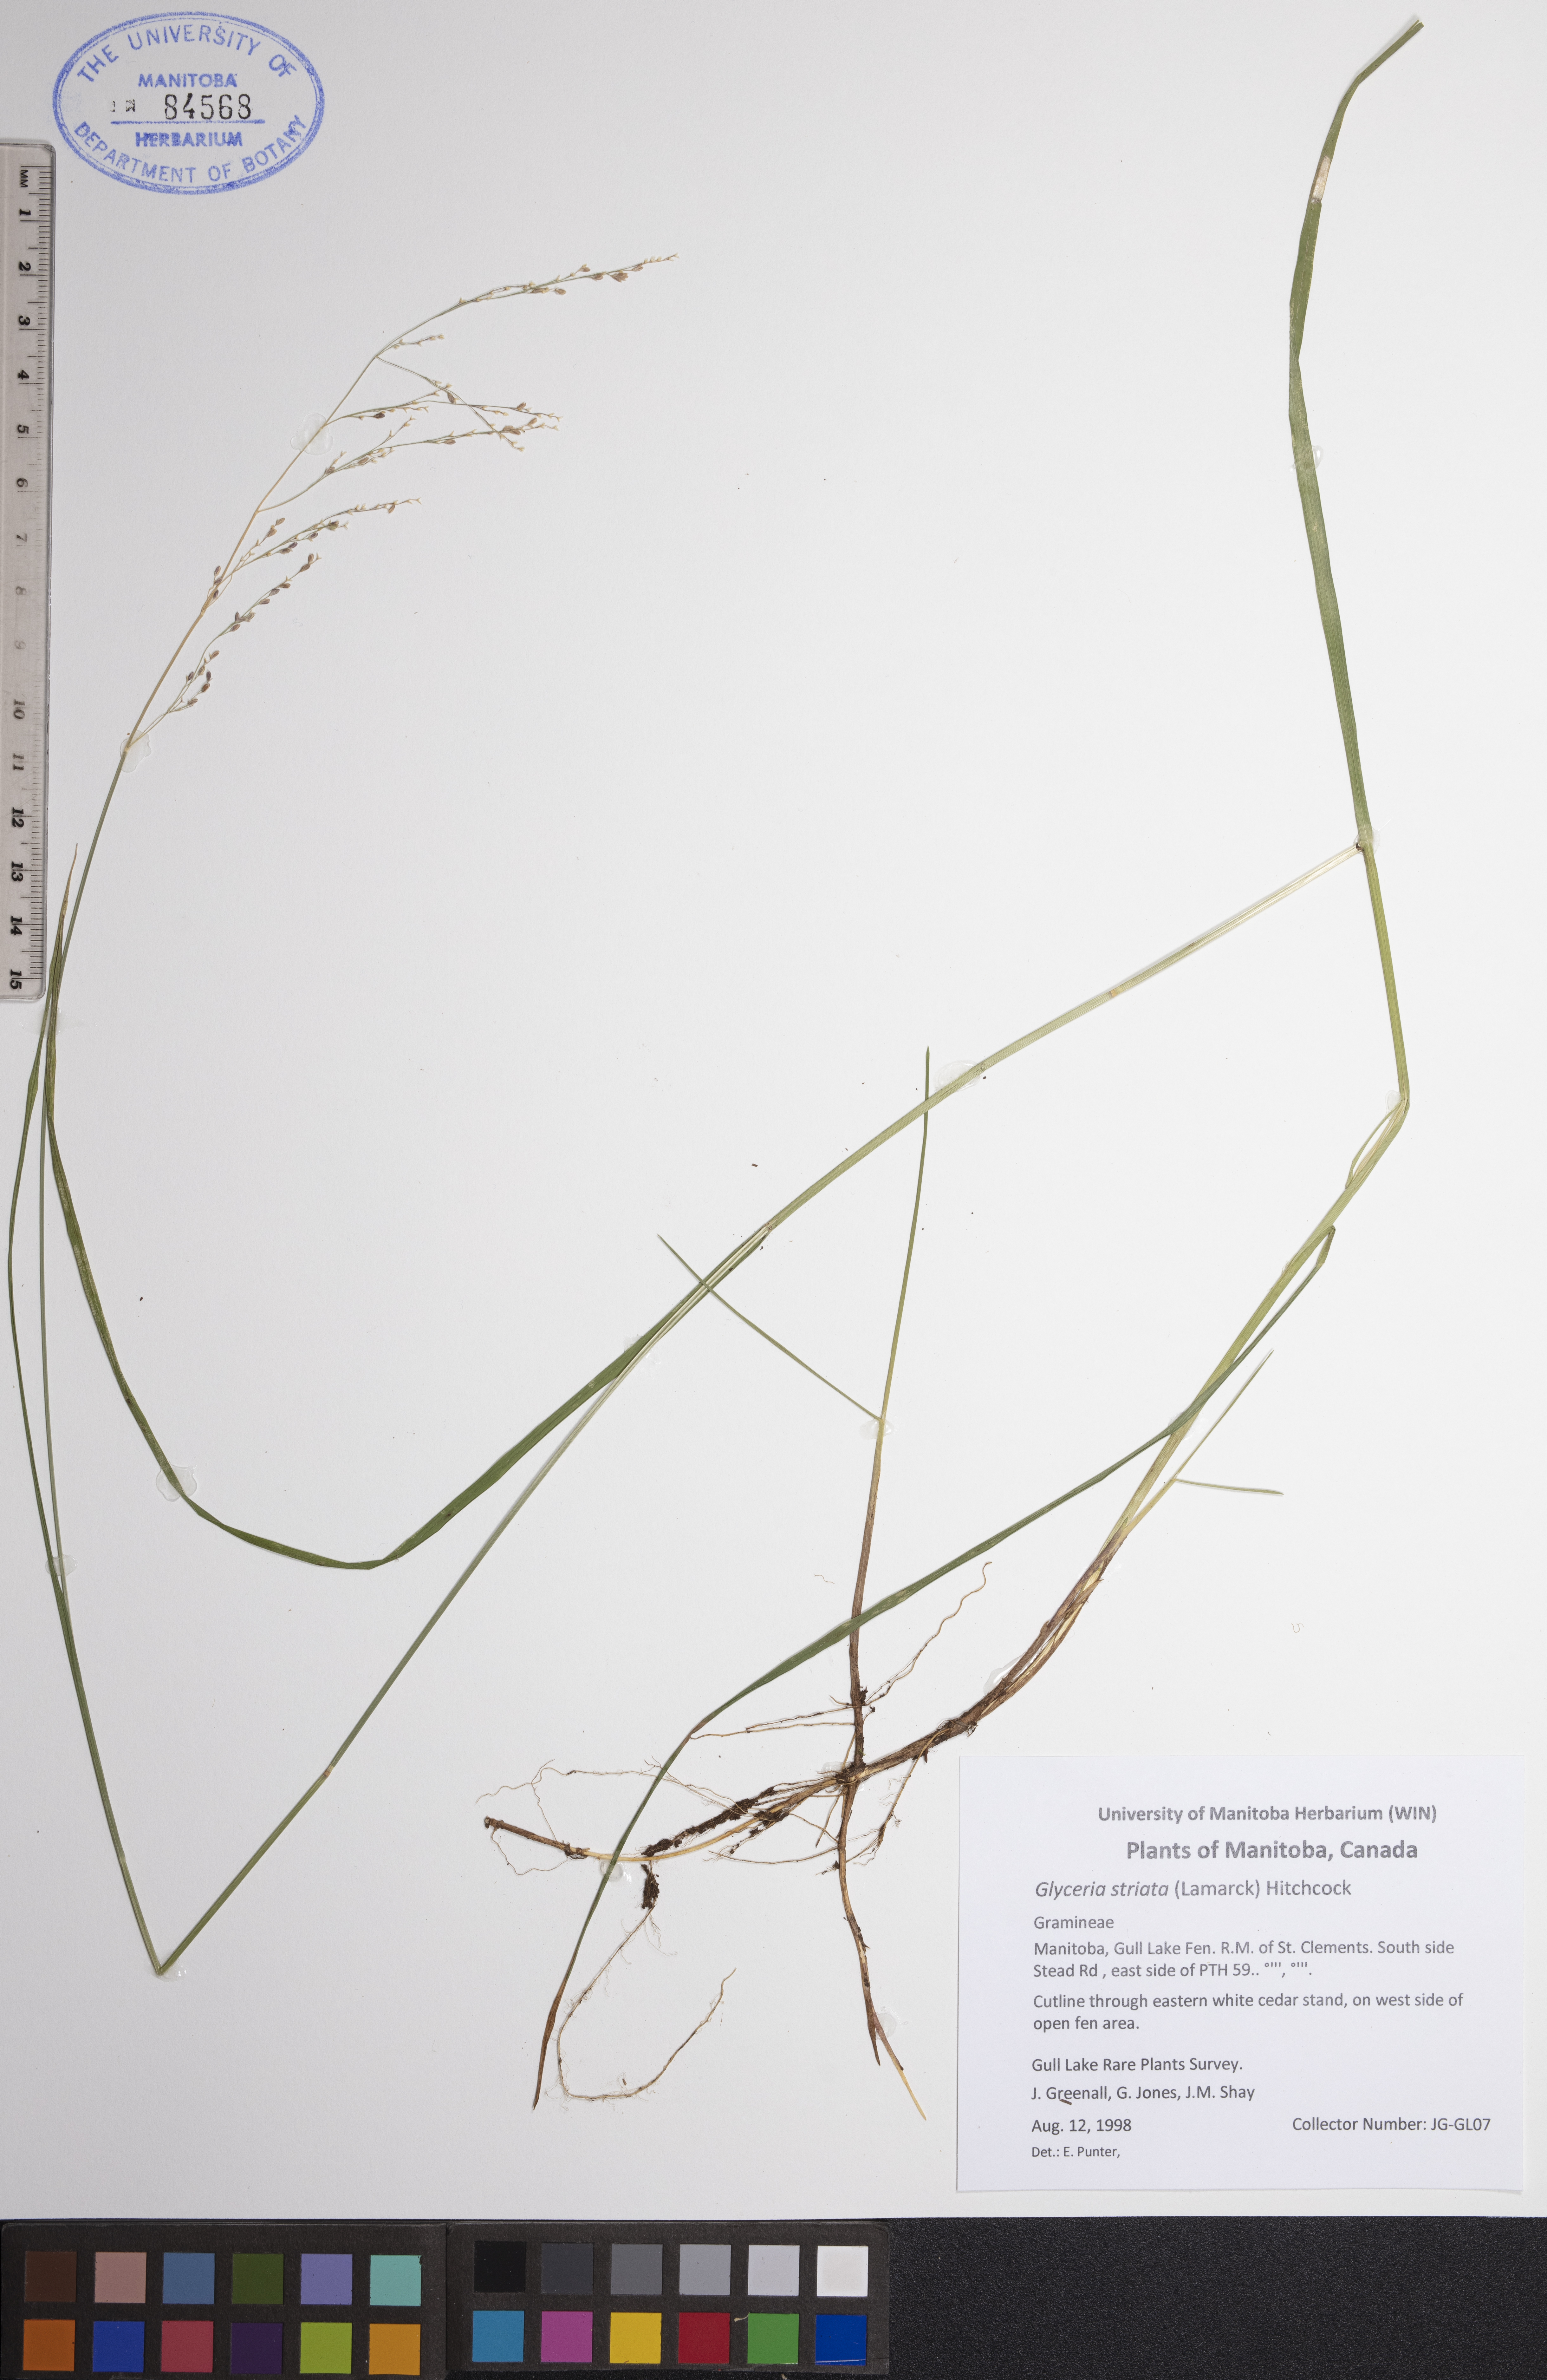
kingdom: Plantae
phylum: Tracheophyta
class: Liliopsida
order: Poales
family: Poaceae
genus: Glyceria
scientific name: Glyceria striata
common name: Fowl manna grass
